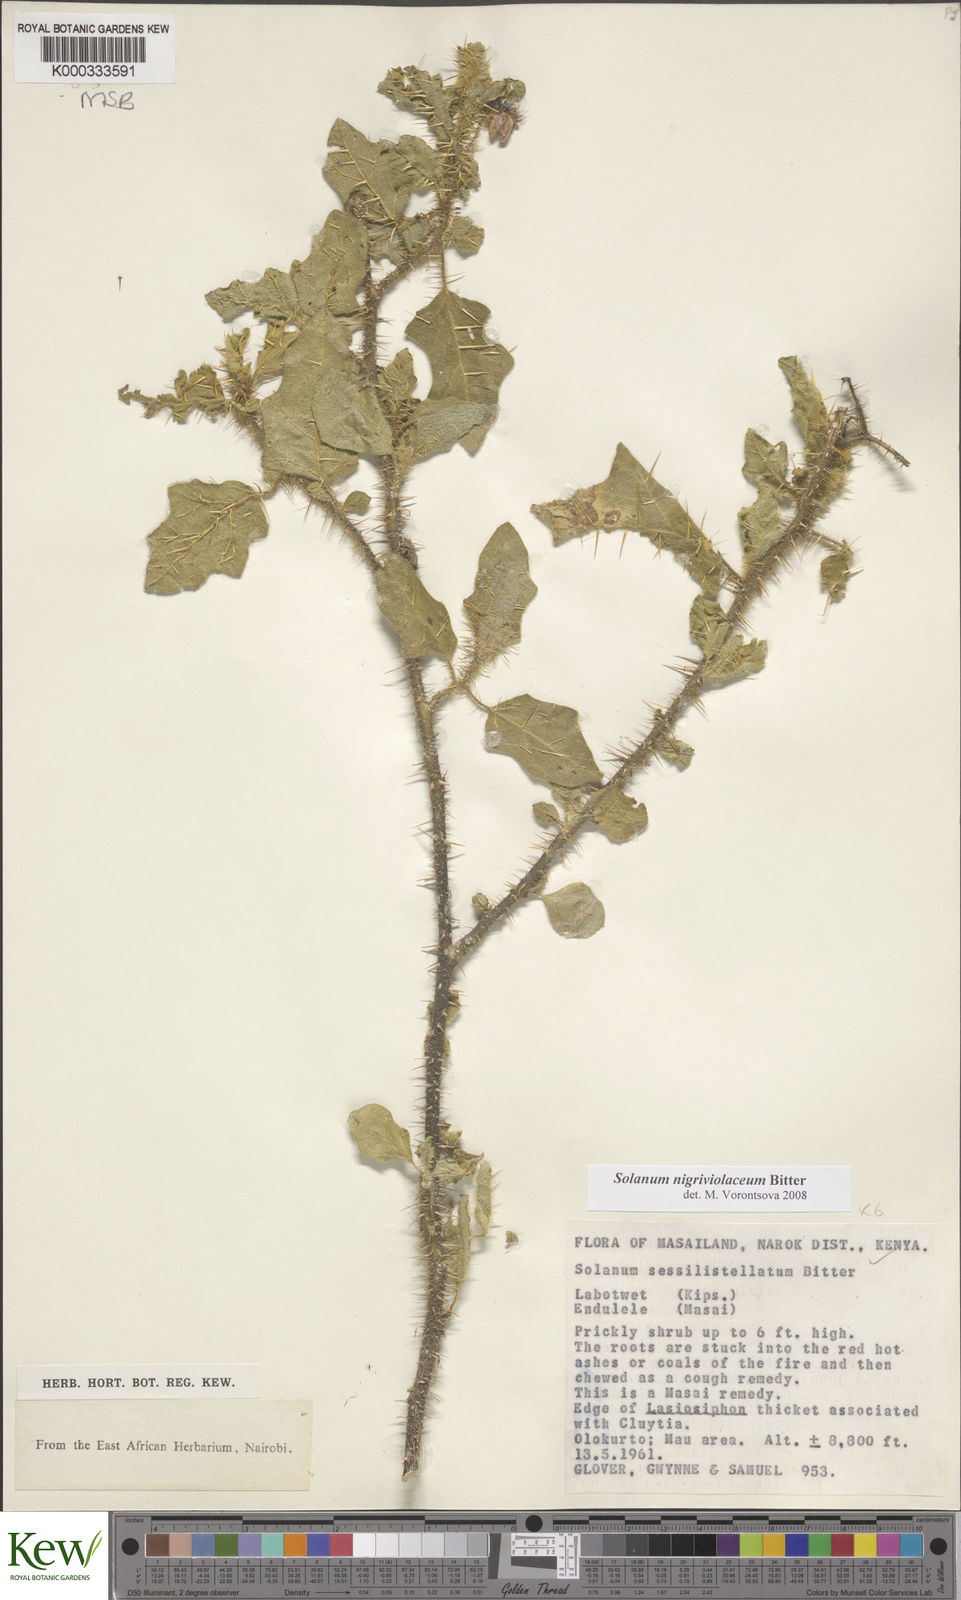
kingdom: Plantae
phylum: Tracheophyta
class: Magnoliopsida
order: Solanales
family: Solanaceae
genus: Solanum
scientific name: Solanum nigriviolaceum
